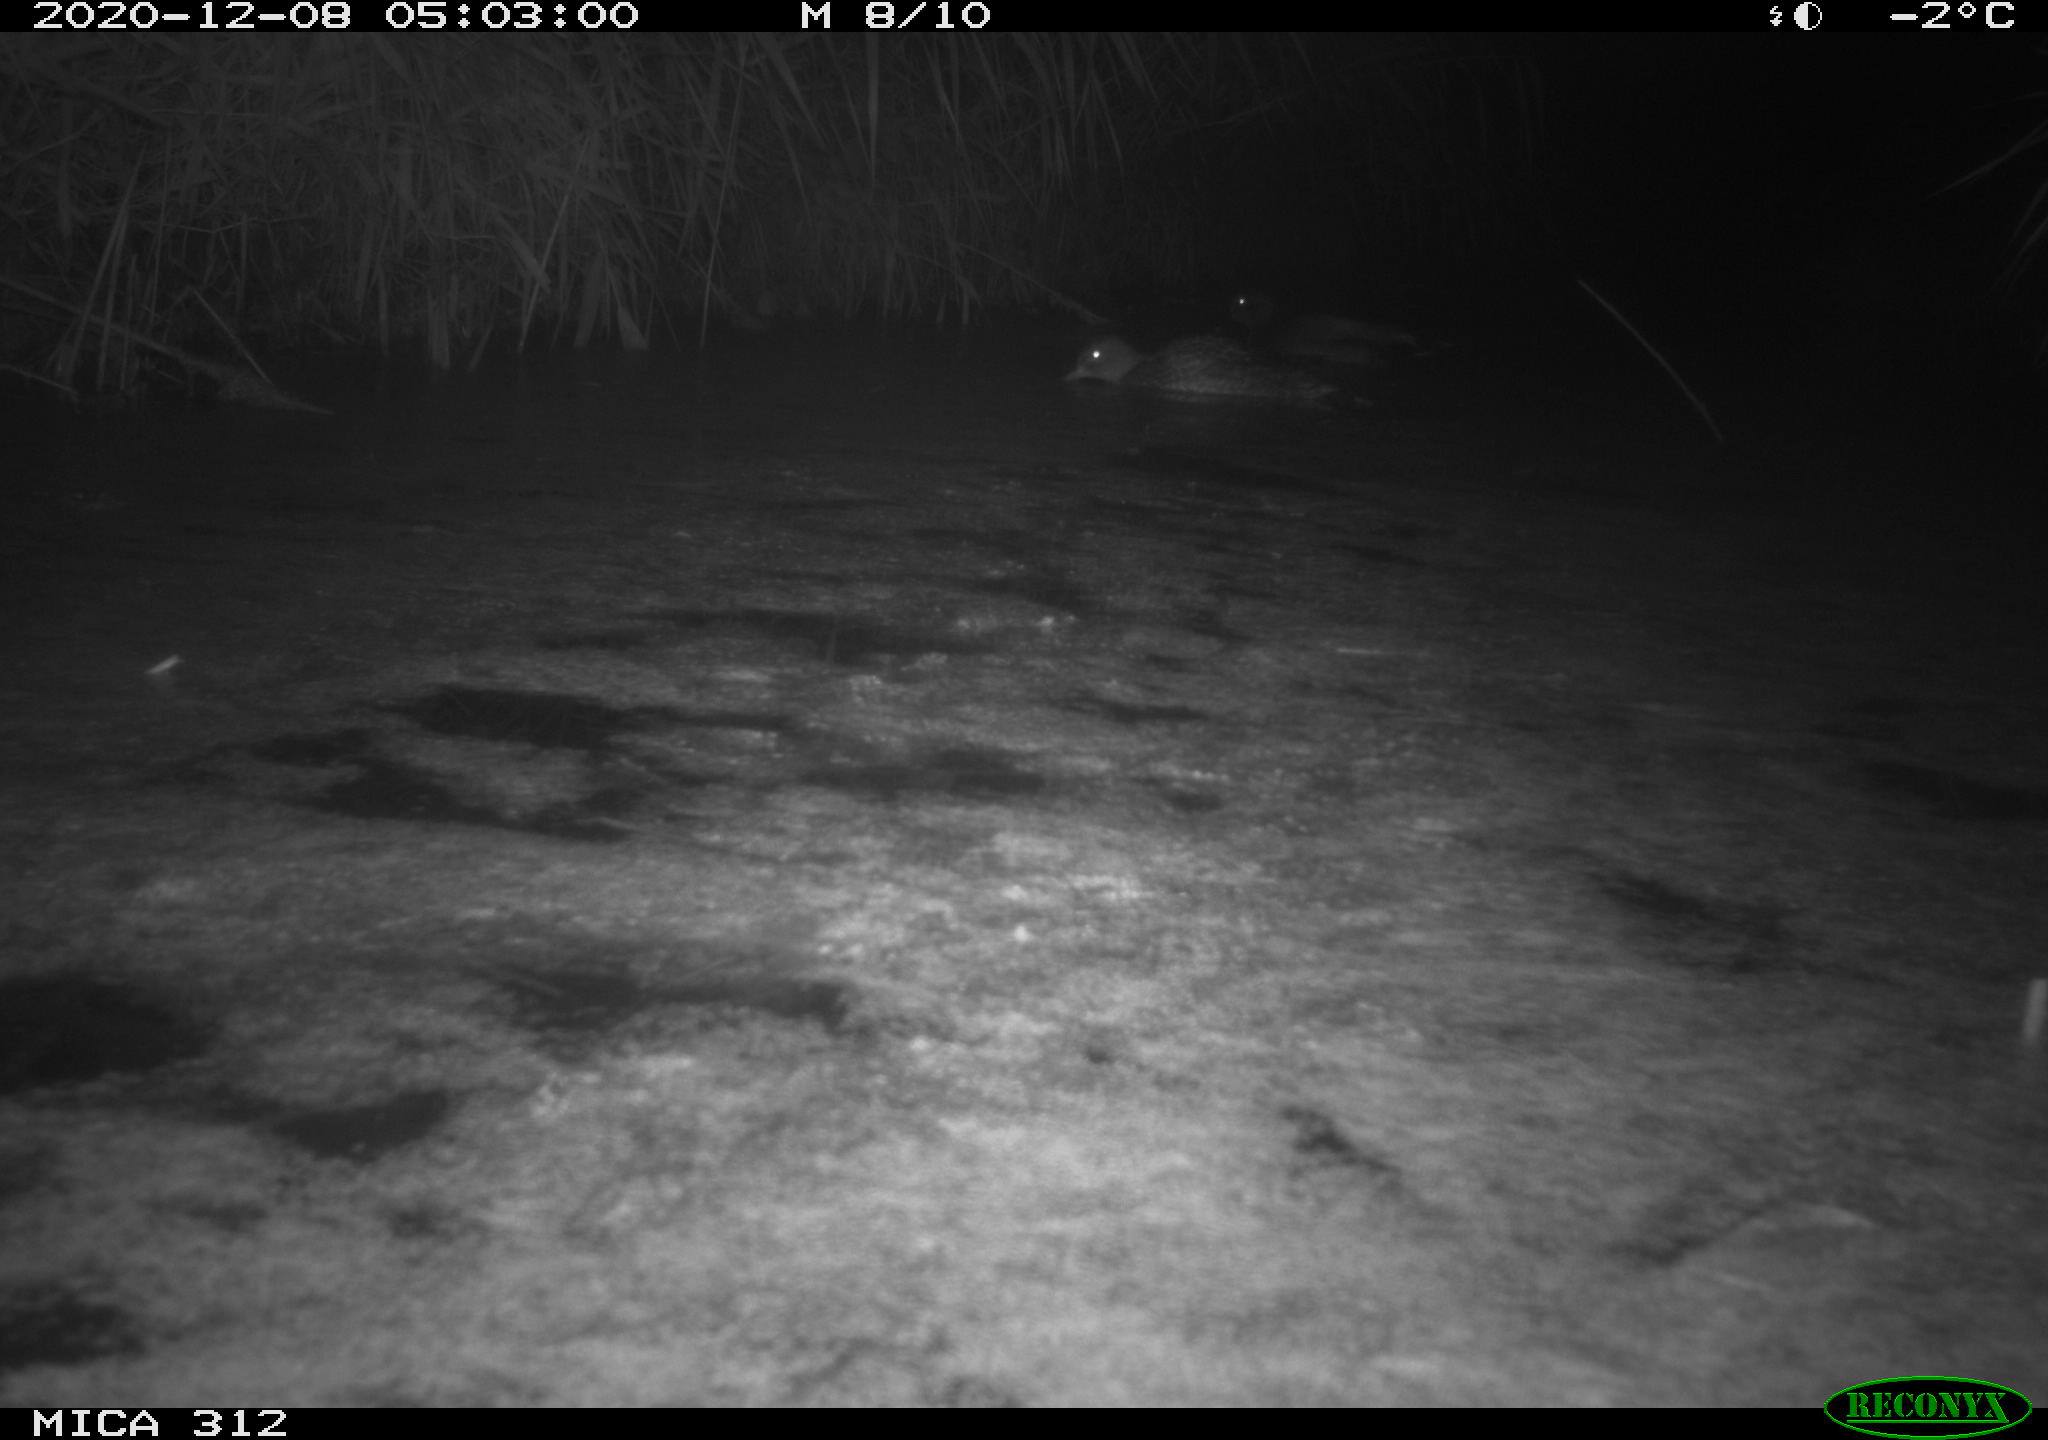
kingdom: Animalia
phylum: Chordata
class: Aves
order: Gruiformes
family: Rallidae
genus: Fulica
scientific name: Fulica atra
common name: Eurasian coot
